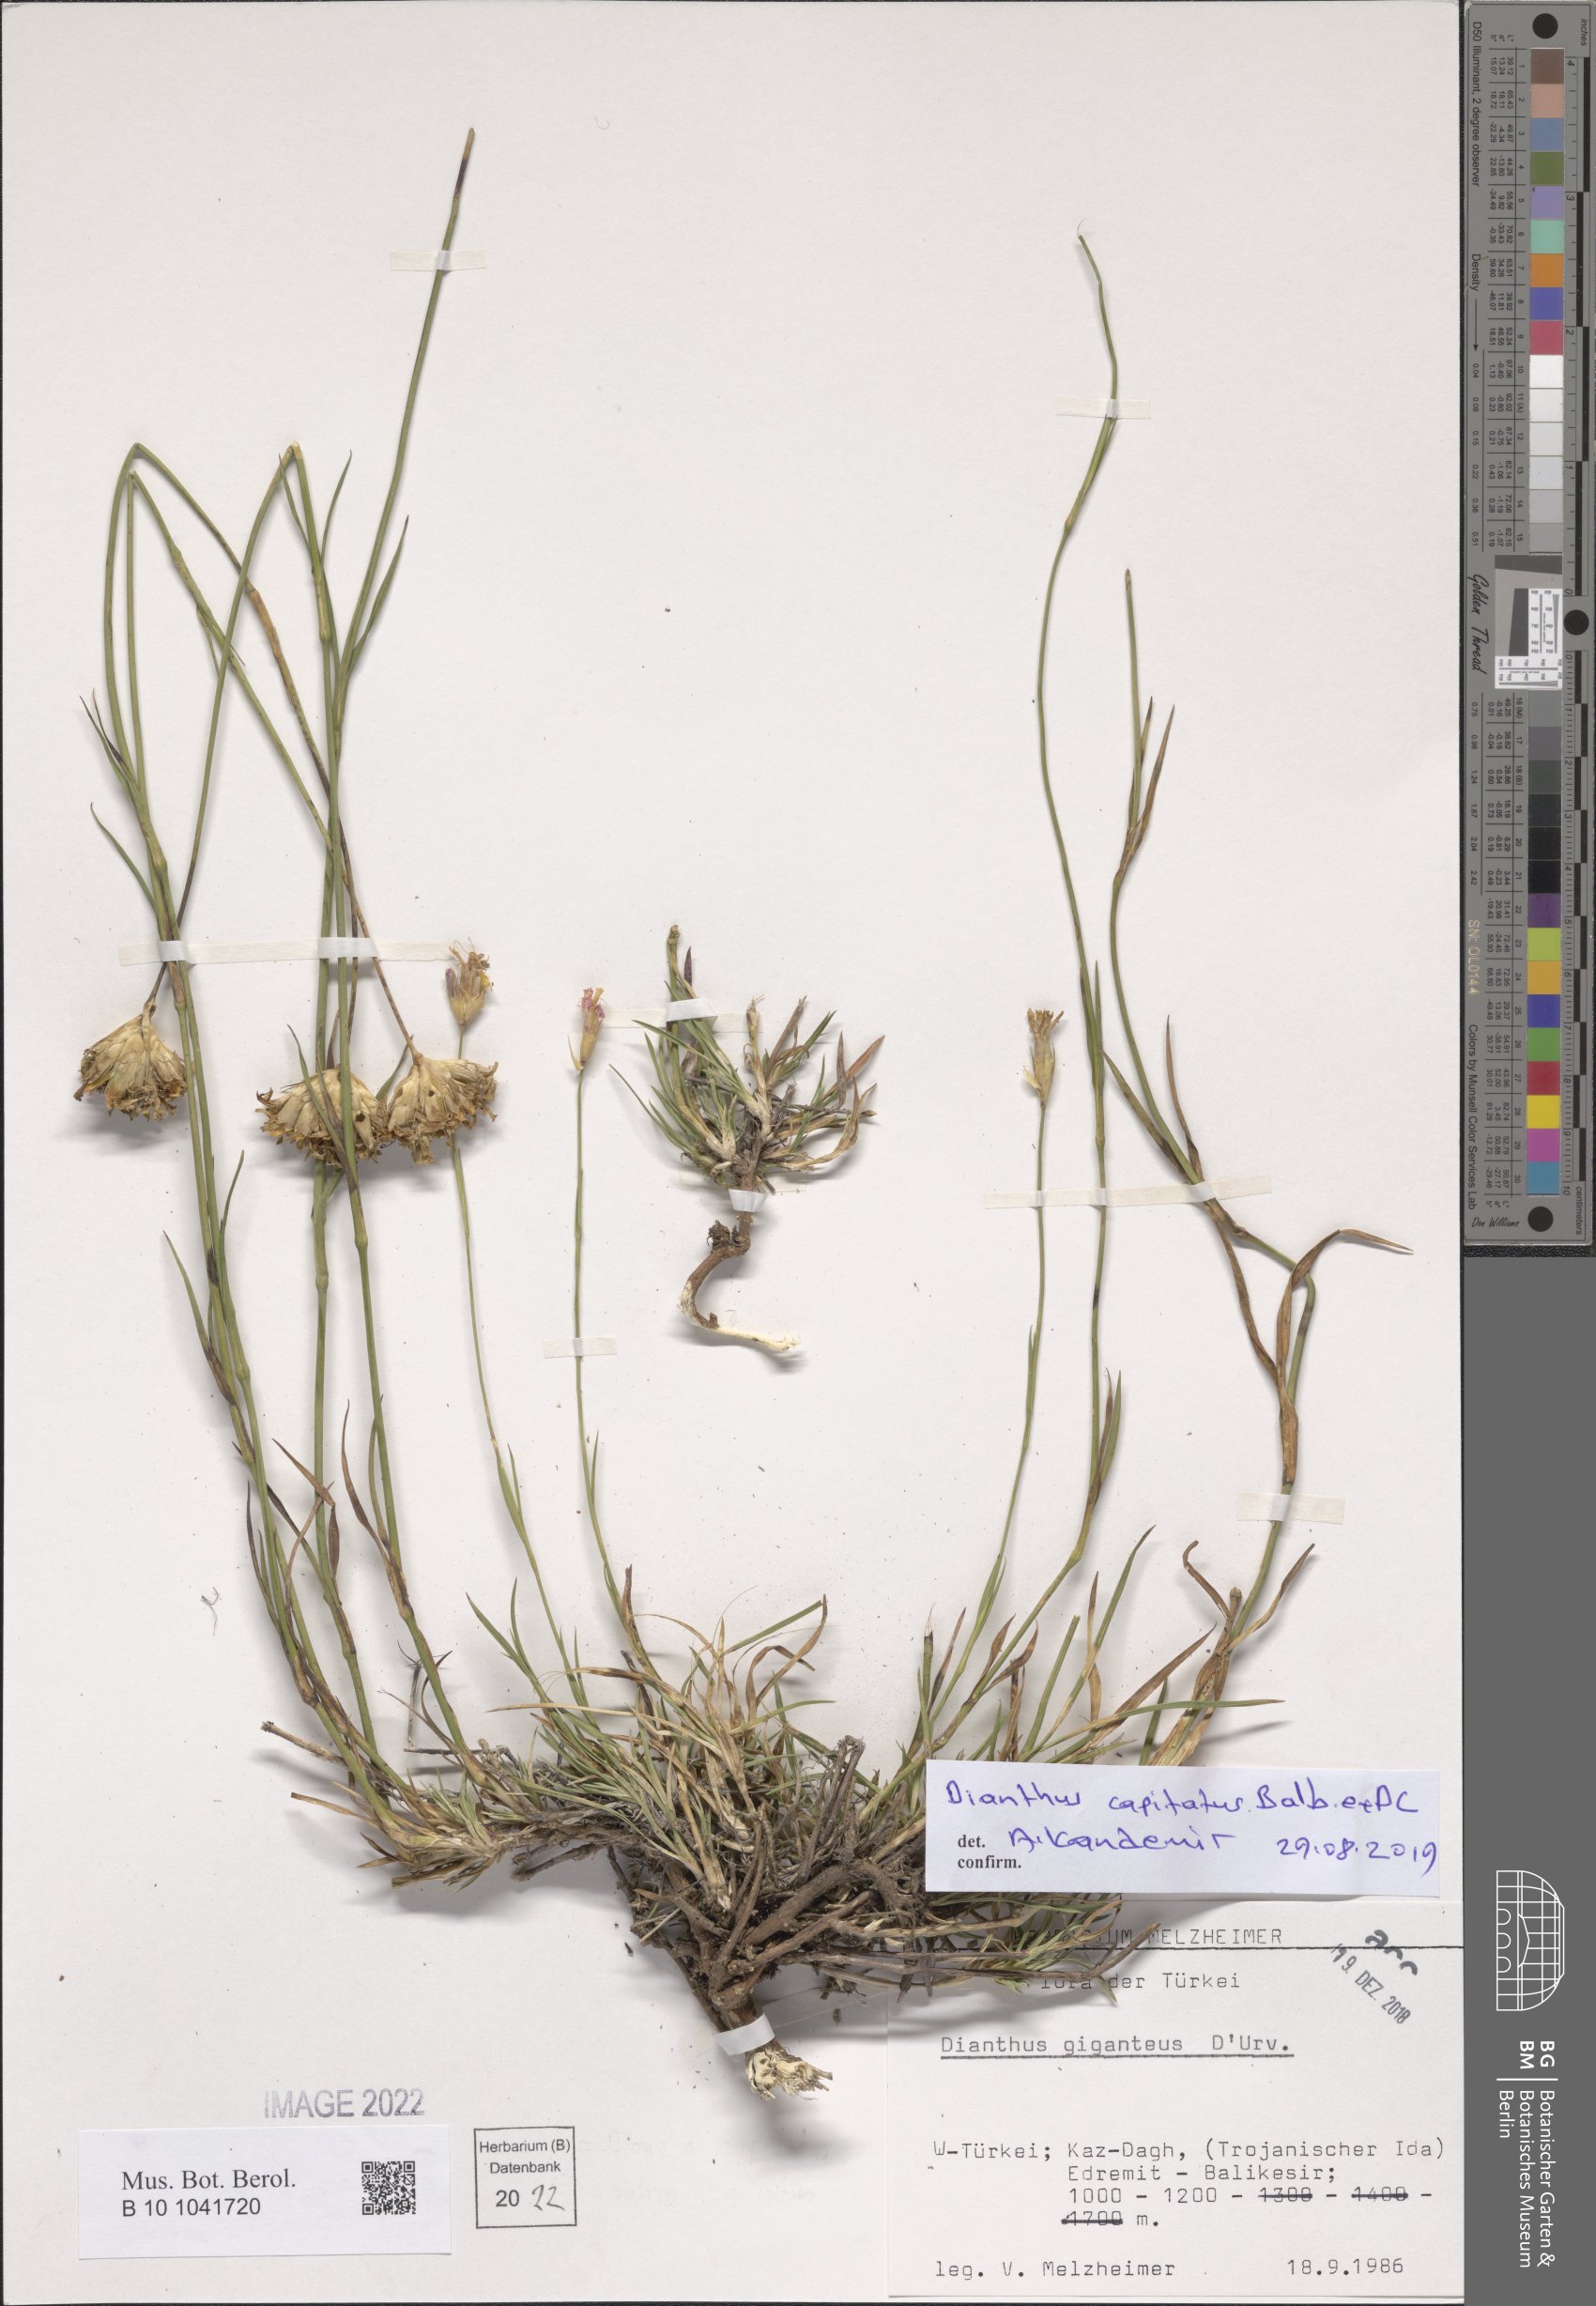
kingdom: Plantae
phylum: Tracheophyta
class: Magnoliopsida
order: Caryophyllales
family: Caryophyllaceae
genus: Dianthus
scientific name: Dianthus capitatus
